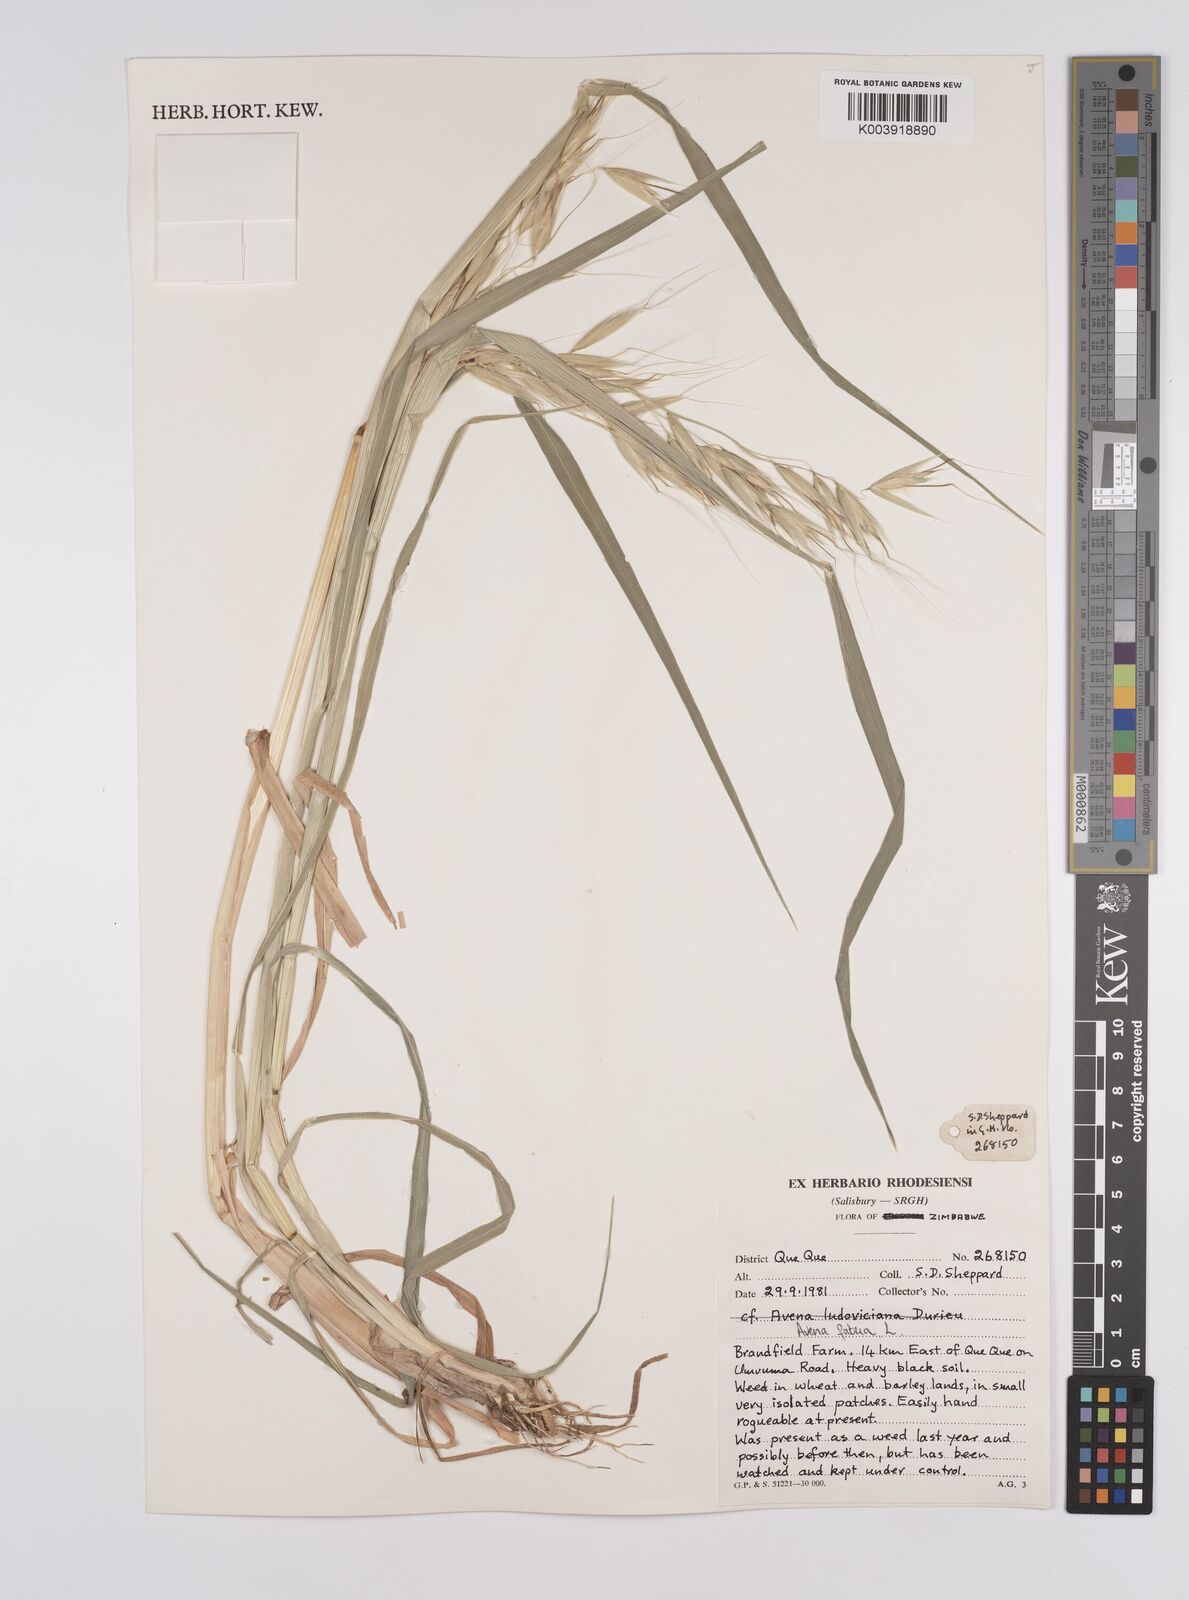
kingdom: Plantae
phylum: Tracheophyta
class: Liliopsida
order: Poales
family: Poaceae
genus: Avena
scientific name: Avena fatua
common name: Wild oat
